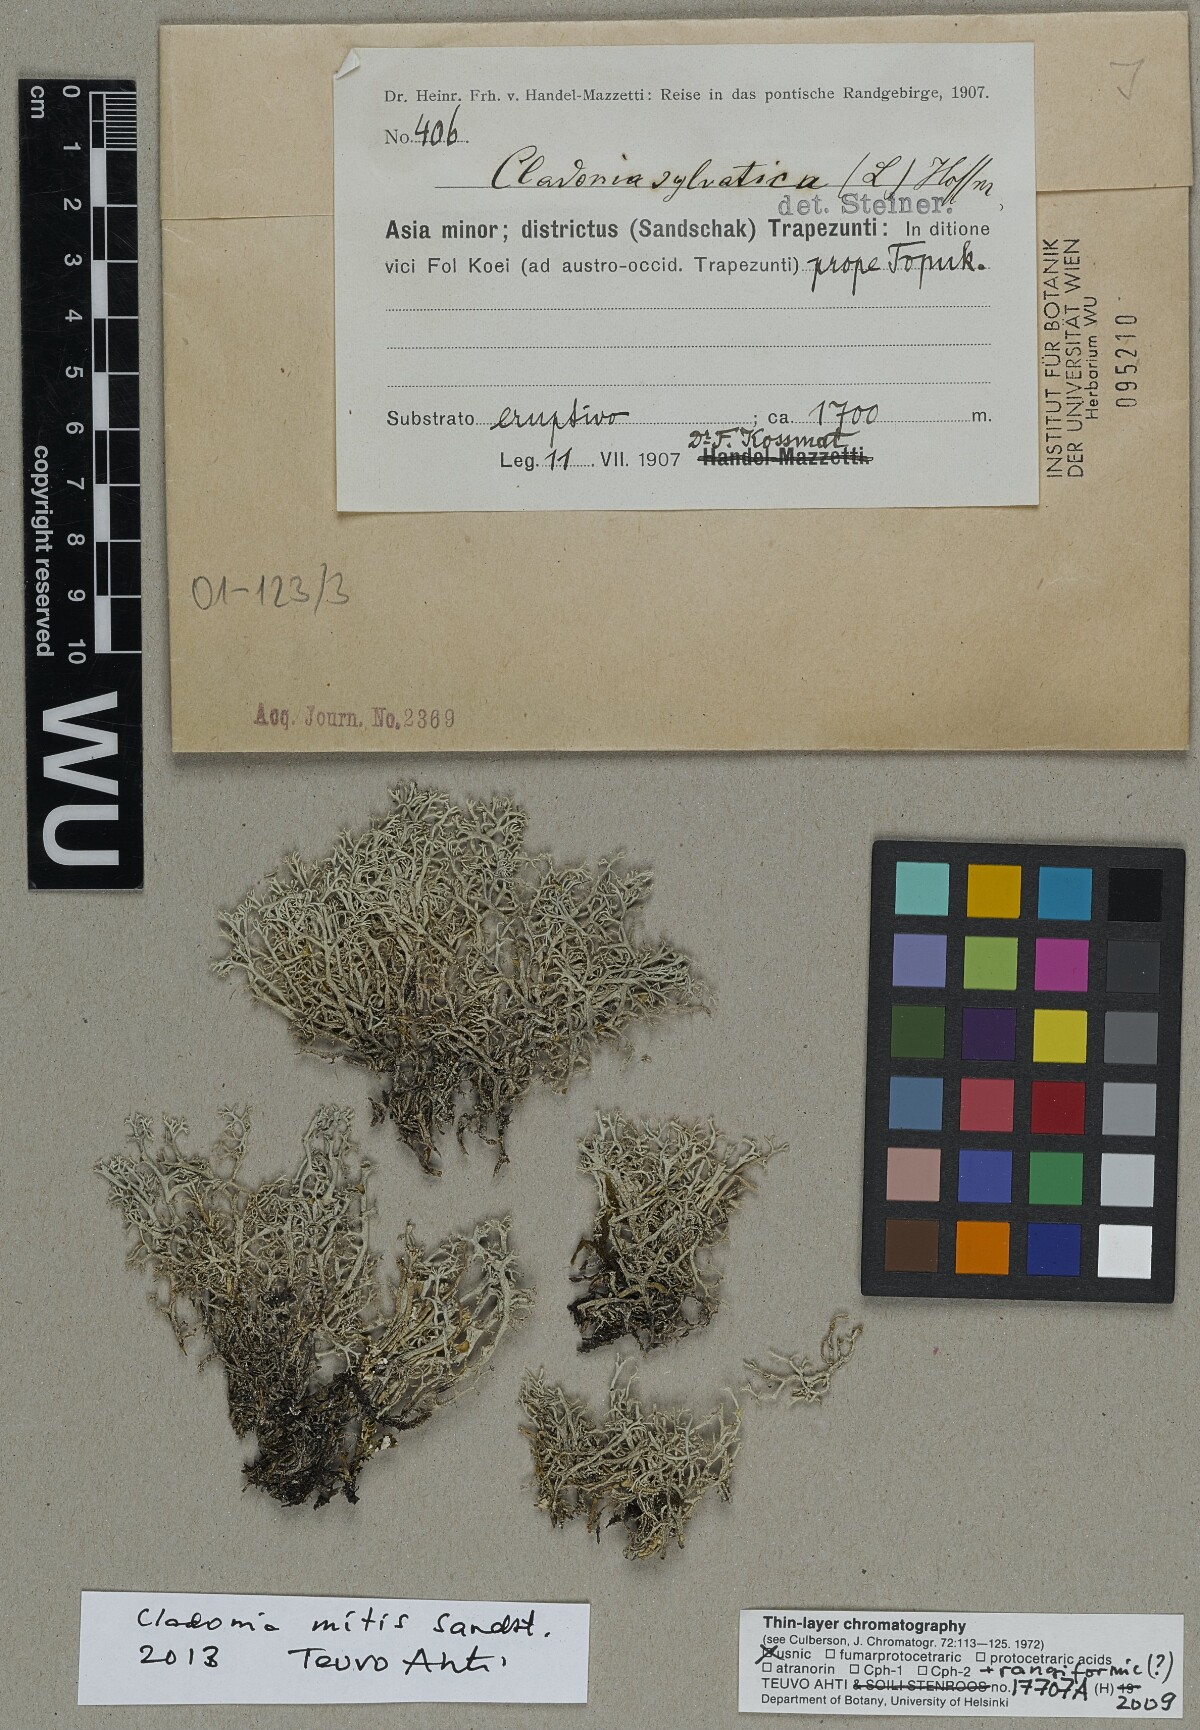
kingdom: Fungi
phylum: Ascomycota
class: Lecanoromycetes
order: Lecanorales
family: Cladoniaceae
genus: Cladonia
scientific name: Cladonia mitis
